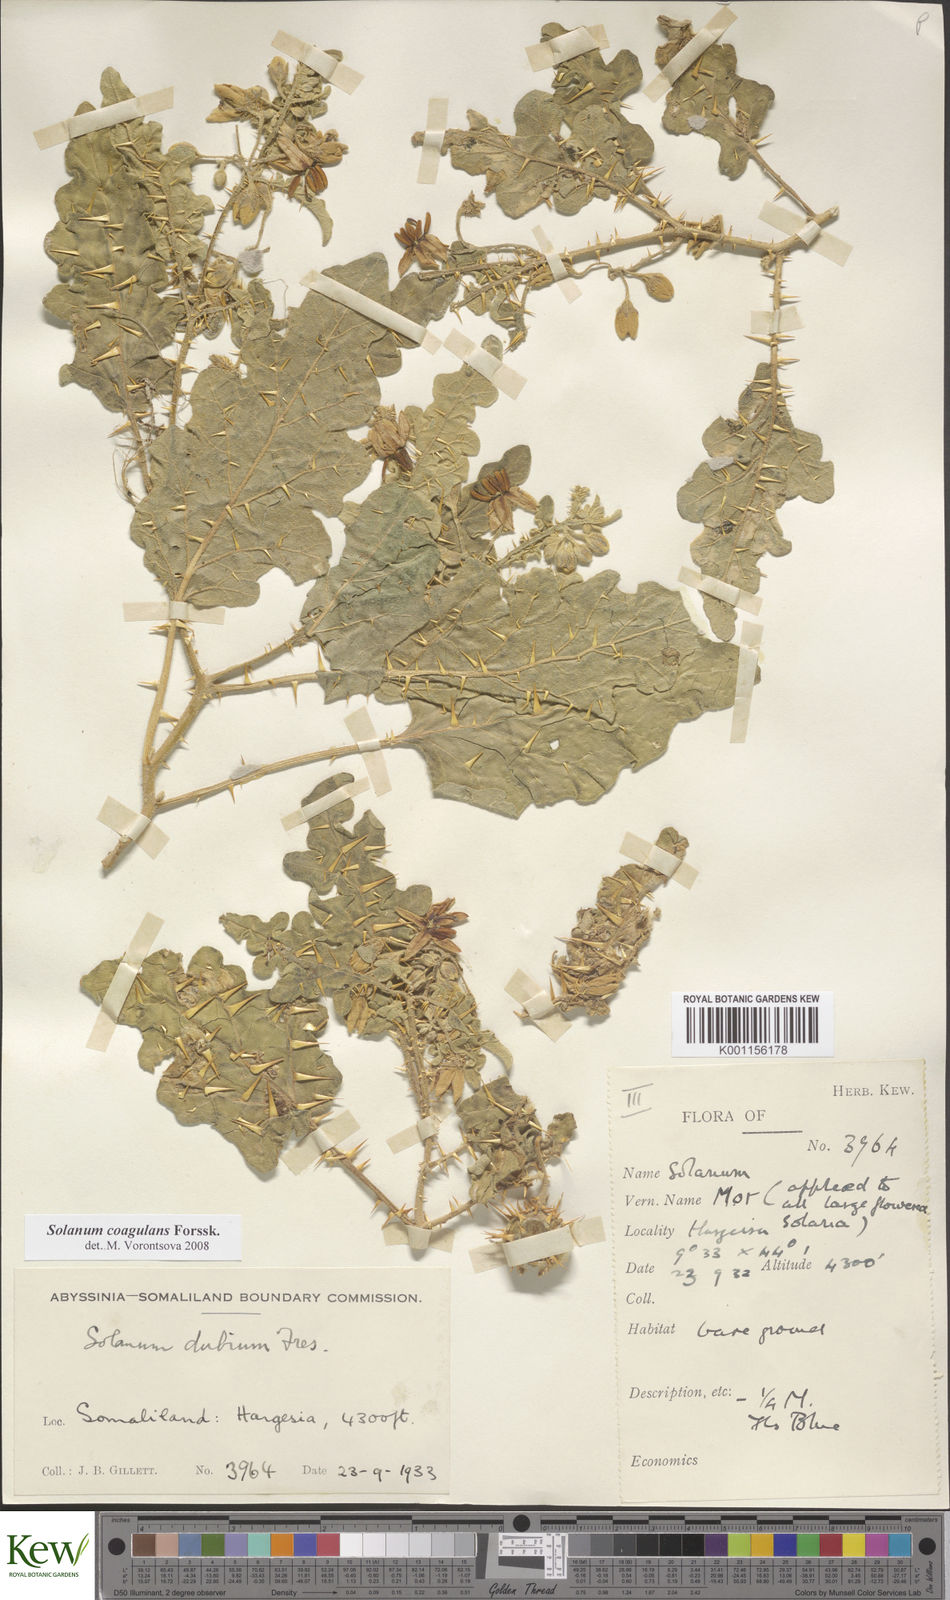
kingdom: Plantae
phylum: Tracheophyta
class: Magnoliopsida
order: Solanales
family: Solanaceae
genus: Solanum
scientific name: Solanum coagulans
